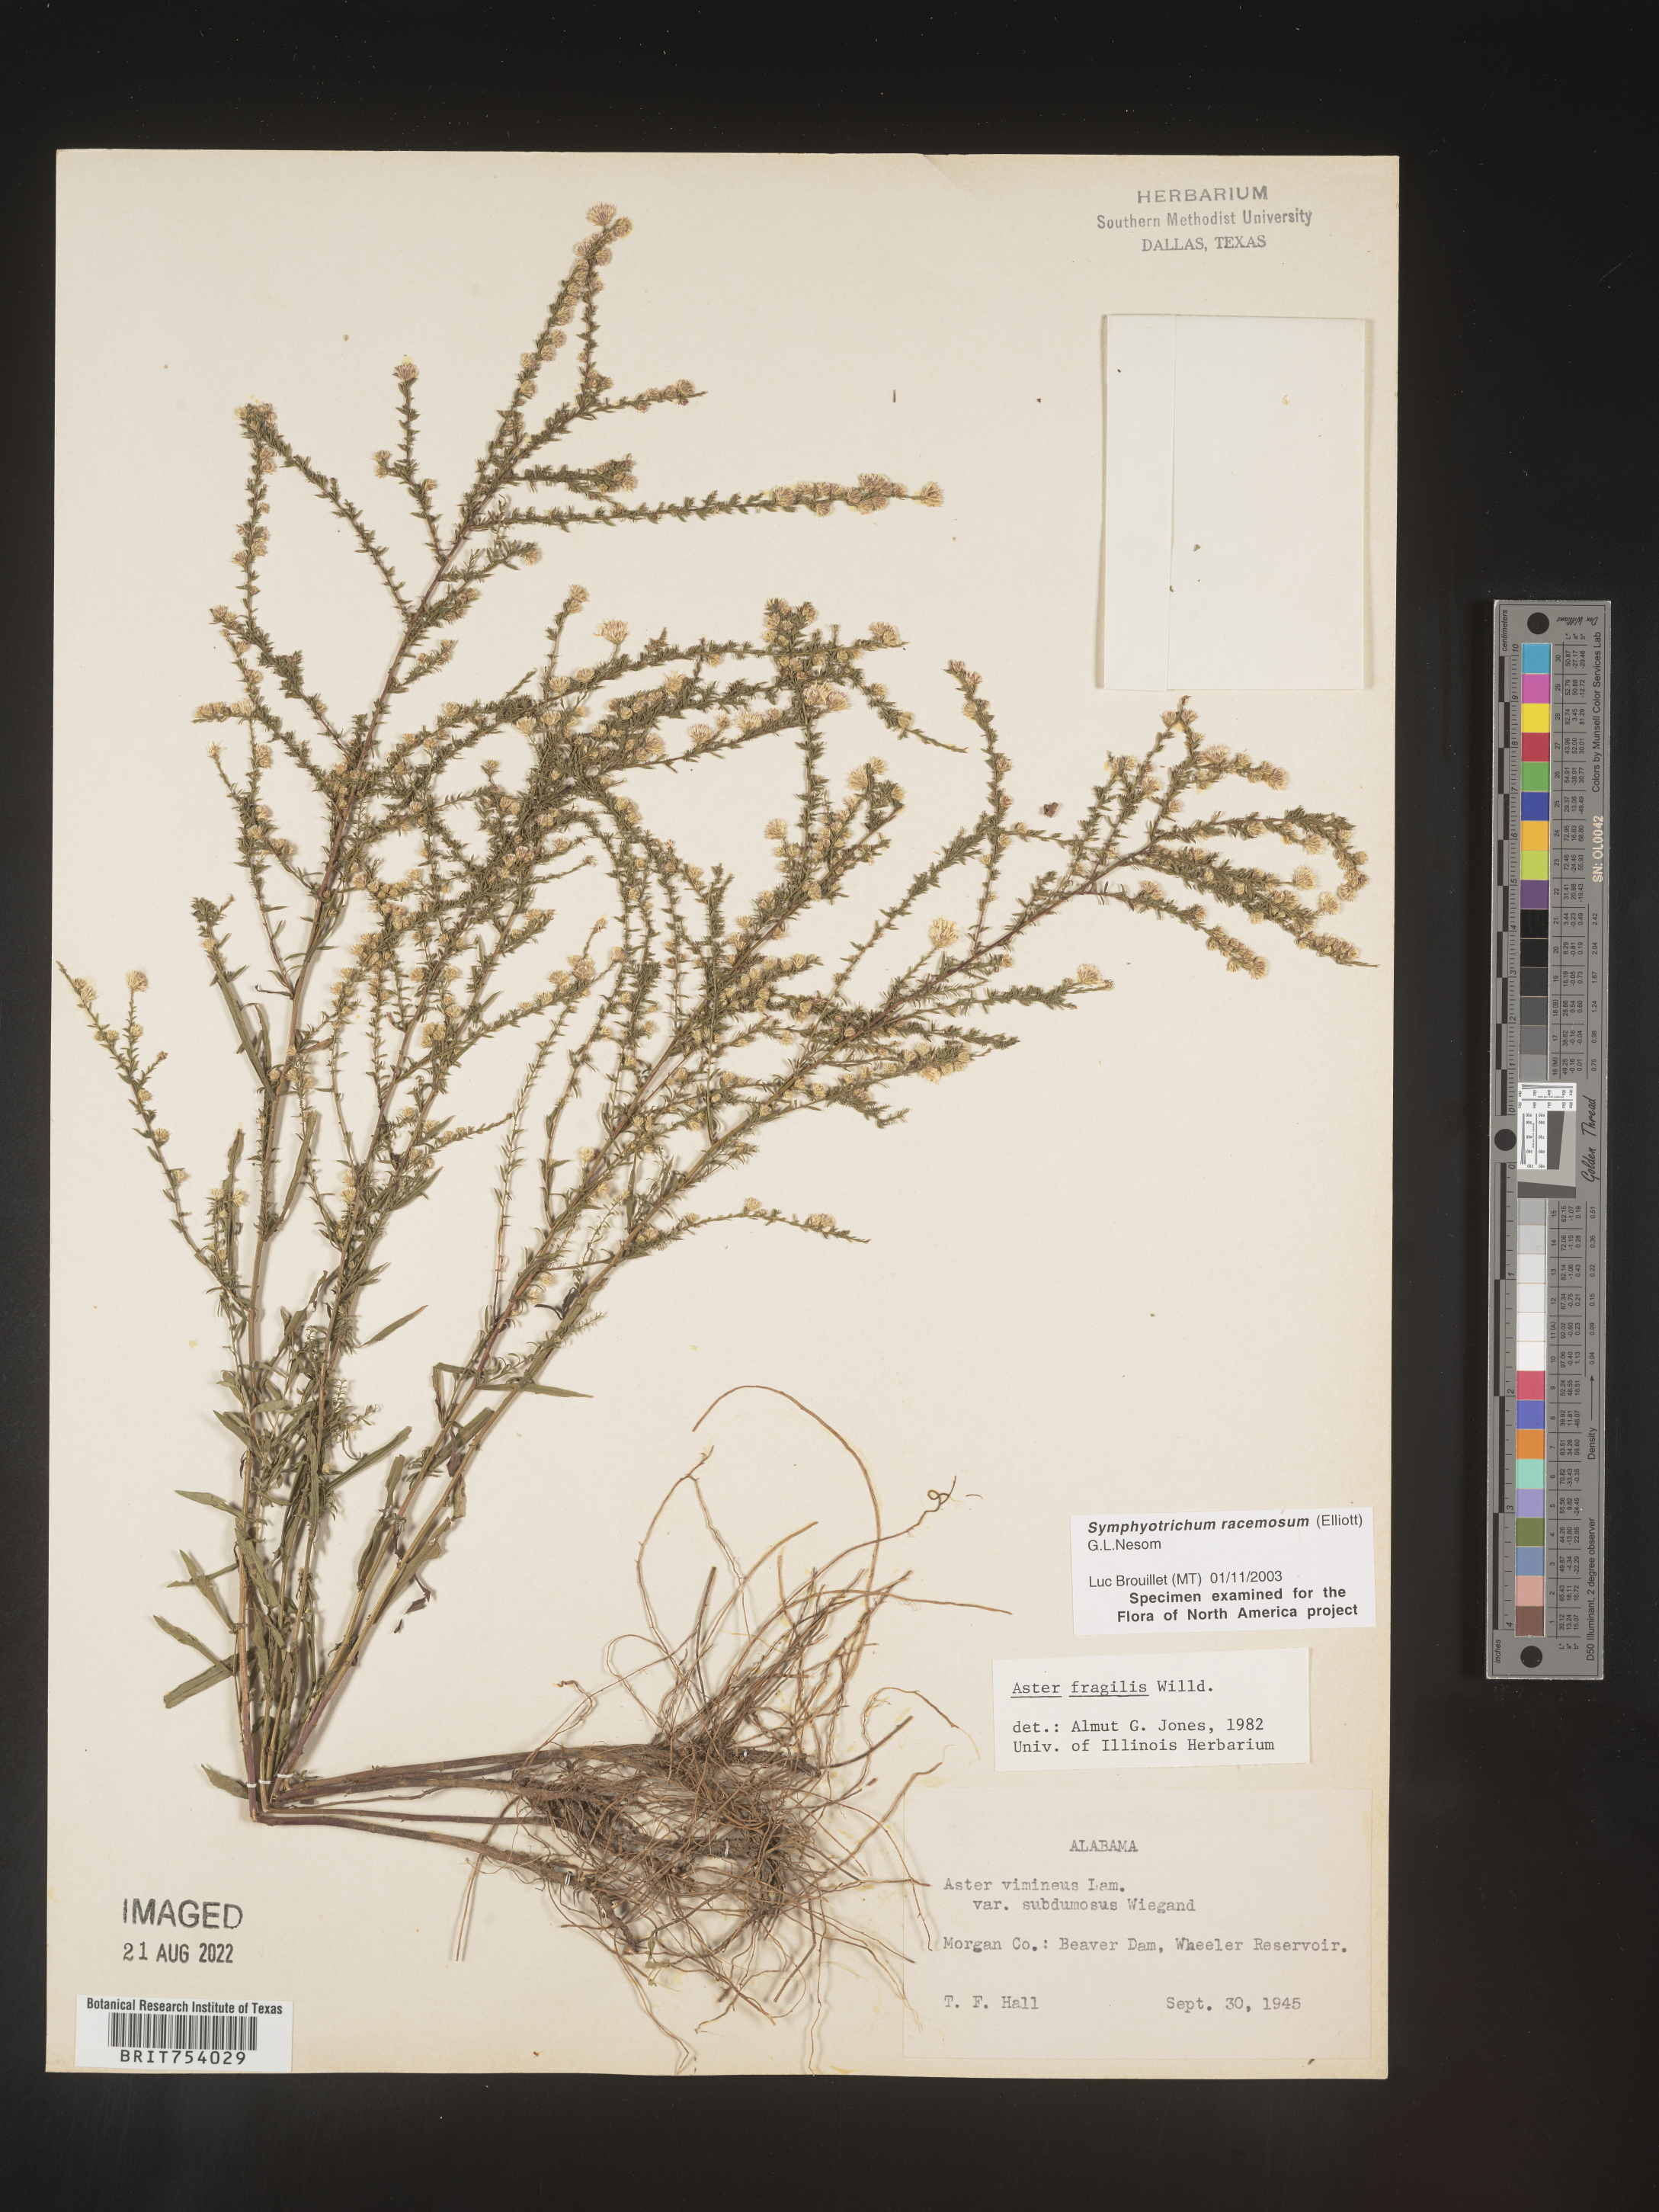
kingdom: Plantae
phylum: Tracheophyta
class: Magnoliopsida
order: Asterales
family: Asteraceae
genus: Symphyotrichum
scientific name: Symphyotrichum racemosum
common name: Small white aster
